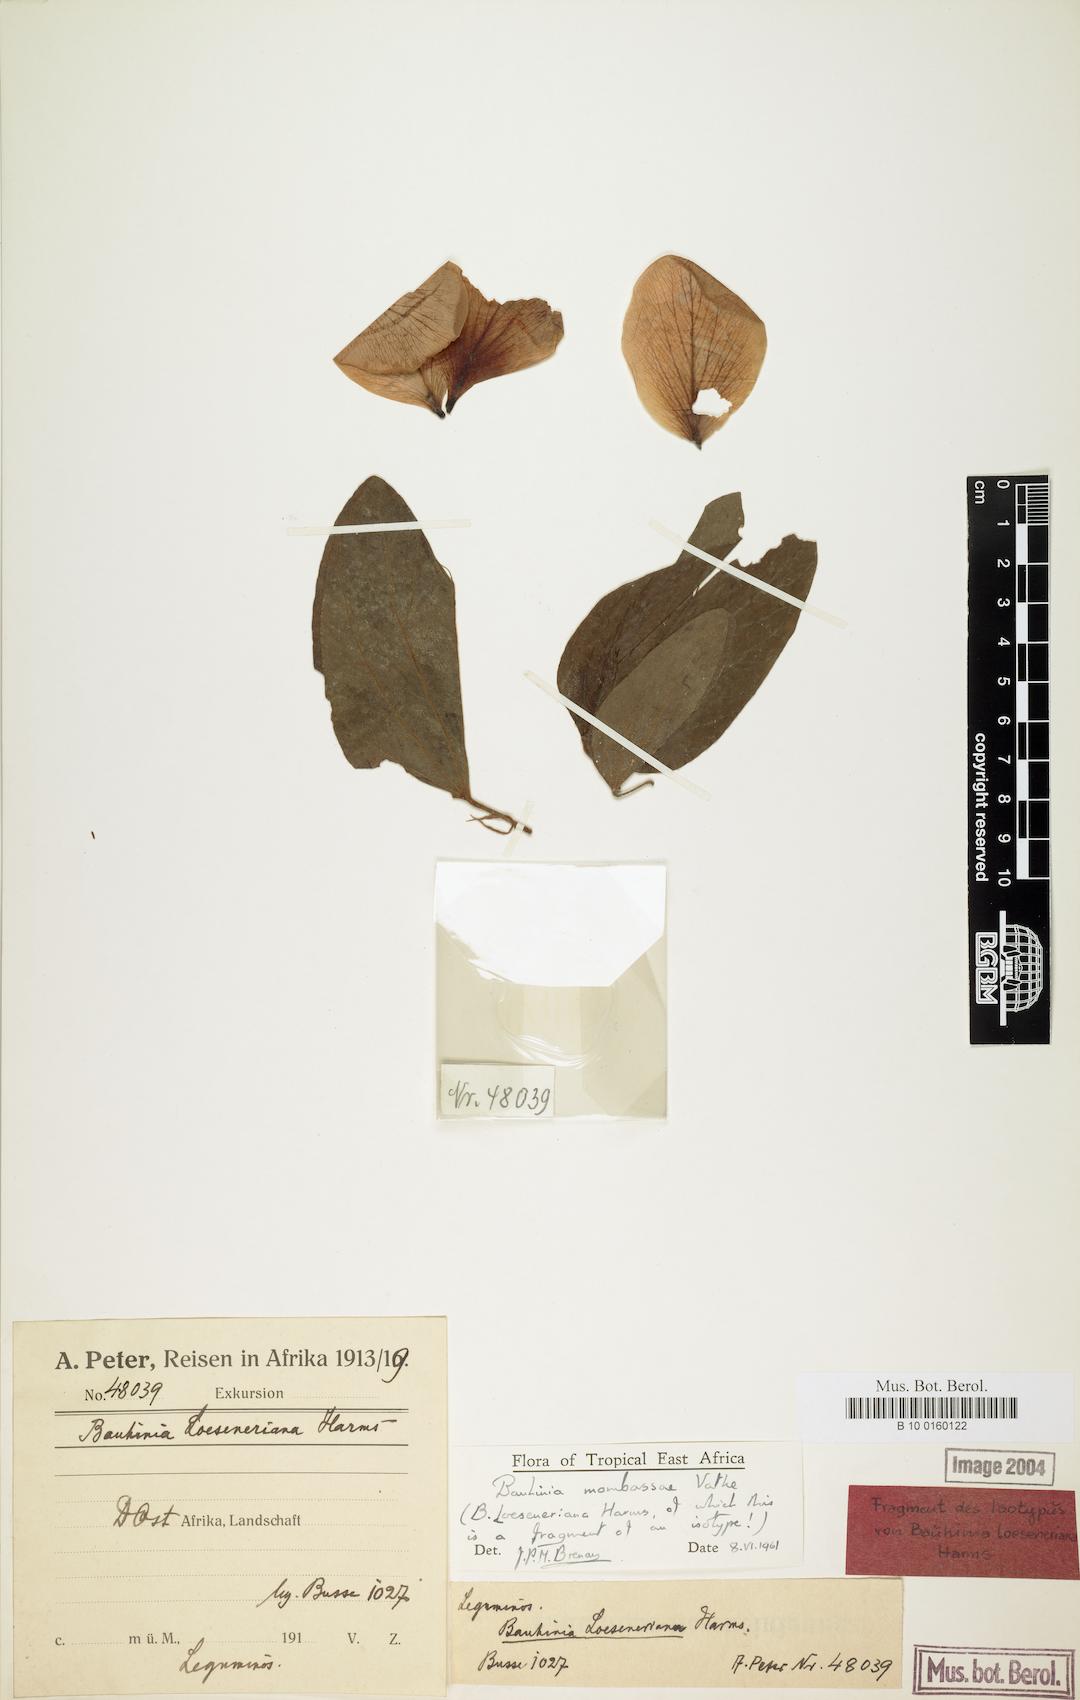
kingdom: Plantae
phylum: Tracheophyta
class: Magnoliopsida
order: Fabales
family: Fabaceae
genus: Bauhinia
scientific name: Bauhinia mombassae
